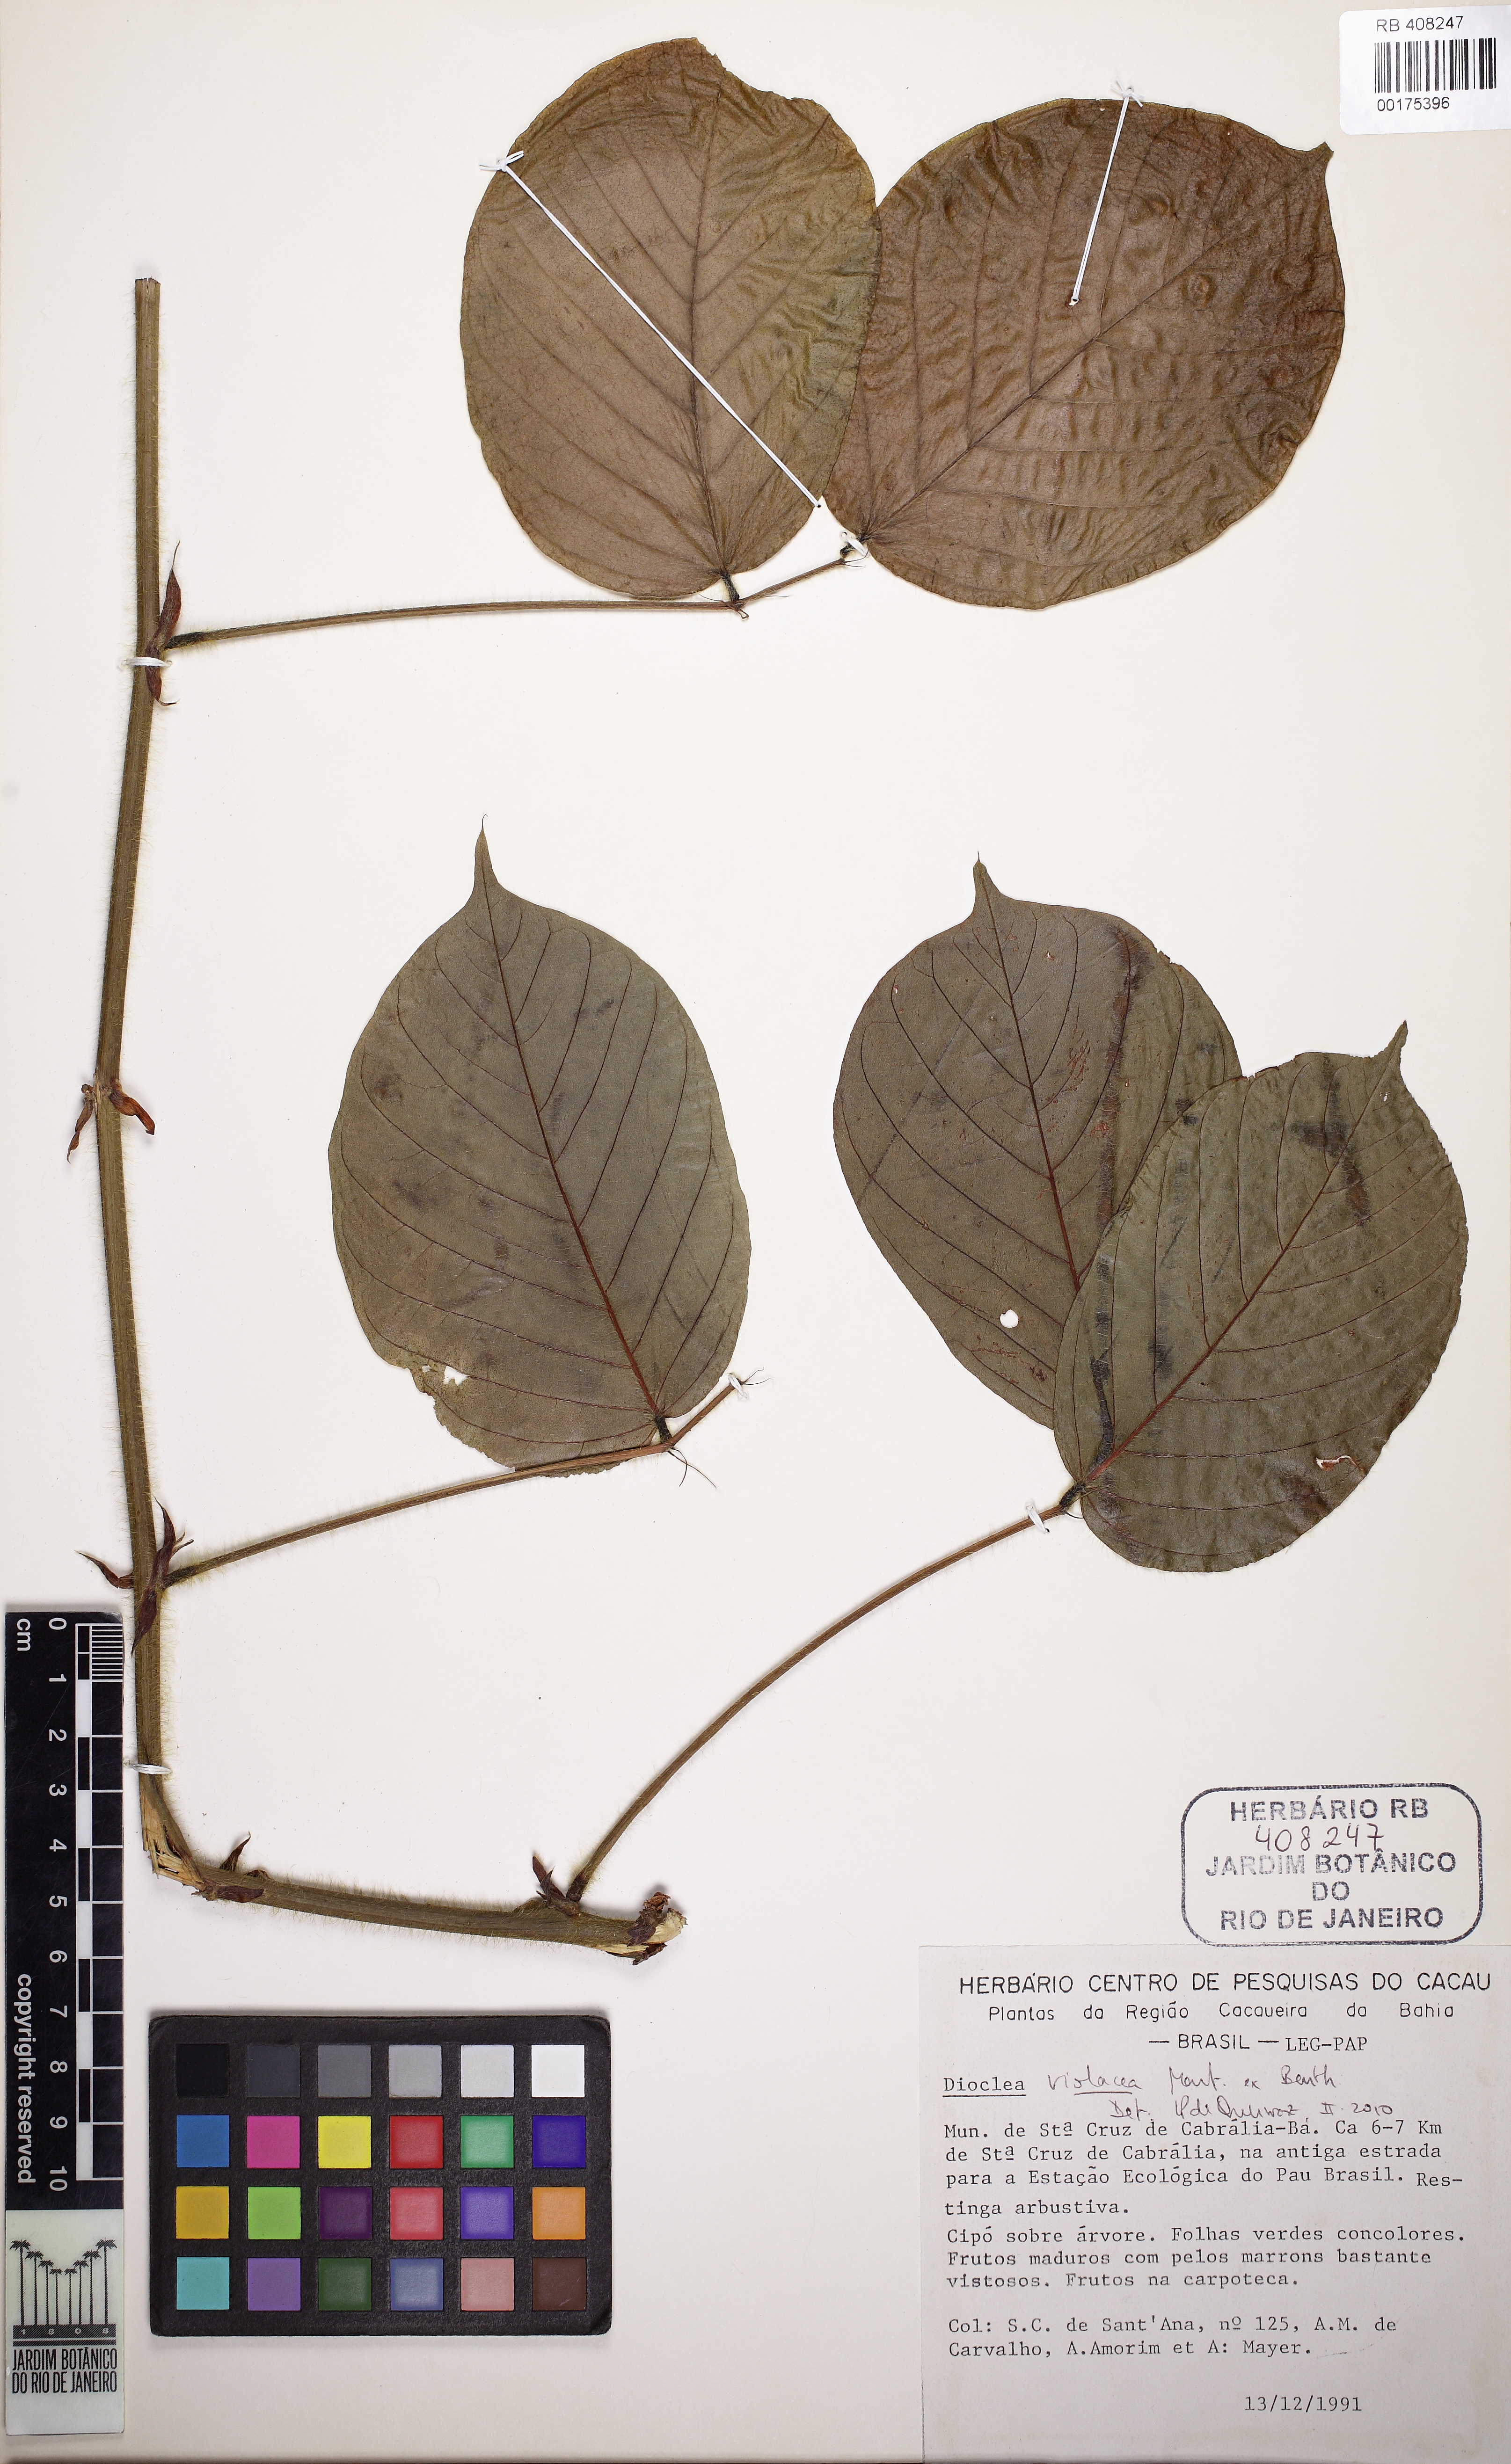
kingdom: Plantae
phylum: Tracheophyta
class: Magnoliopsida
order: Fabales
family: Fabaceae
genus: Macropsychanthus
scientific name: Macropsychanthus violaceus
